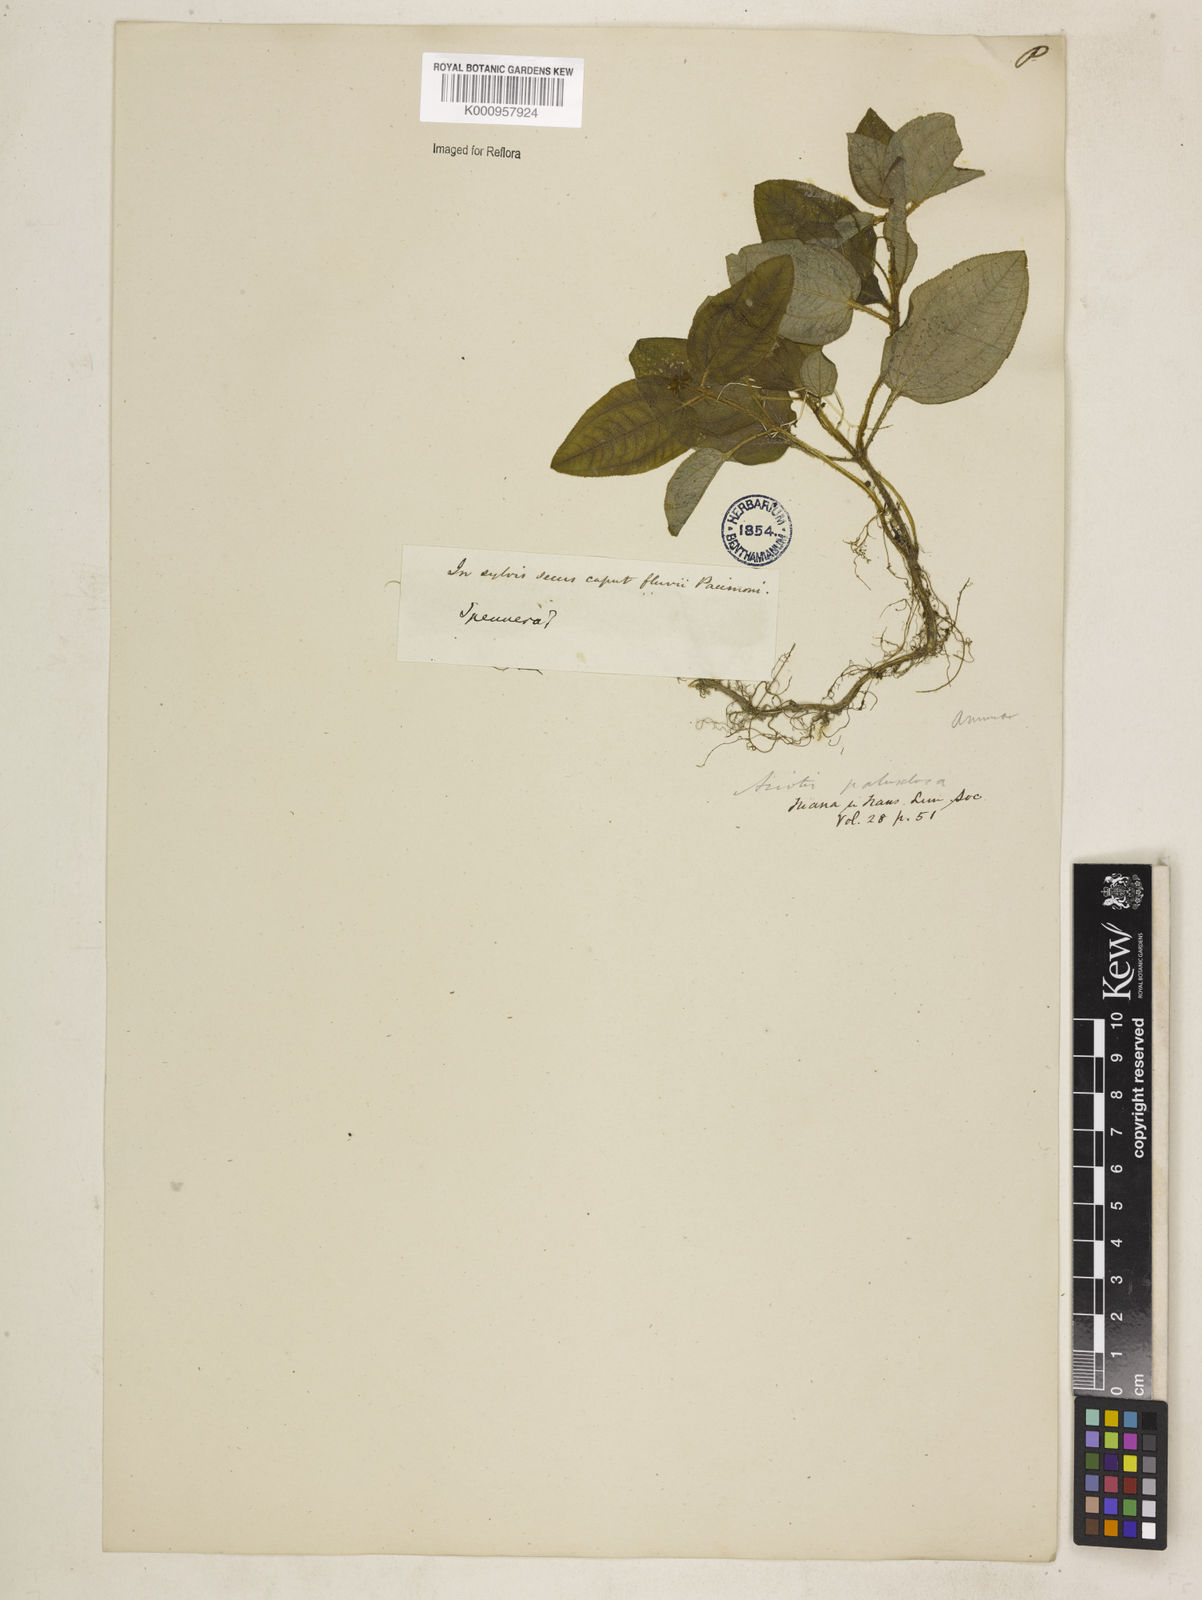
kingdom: Plantae
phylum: Tracheophyta
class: Magnoliopsida
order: Myrtales
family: Melastomataceae
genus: Aciotis
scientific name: Aciotis paludosa
